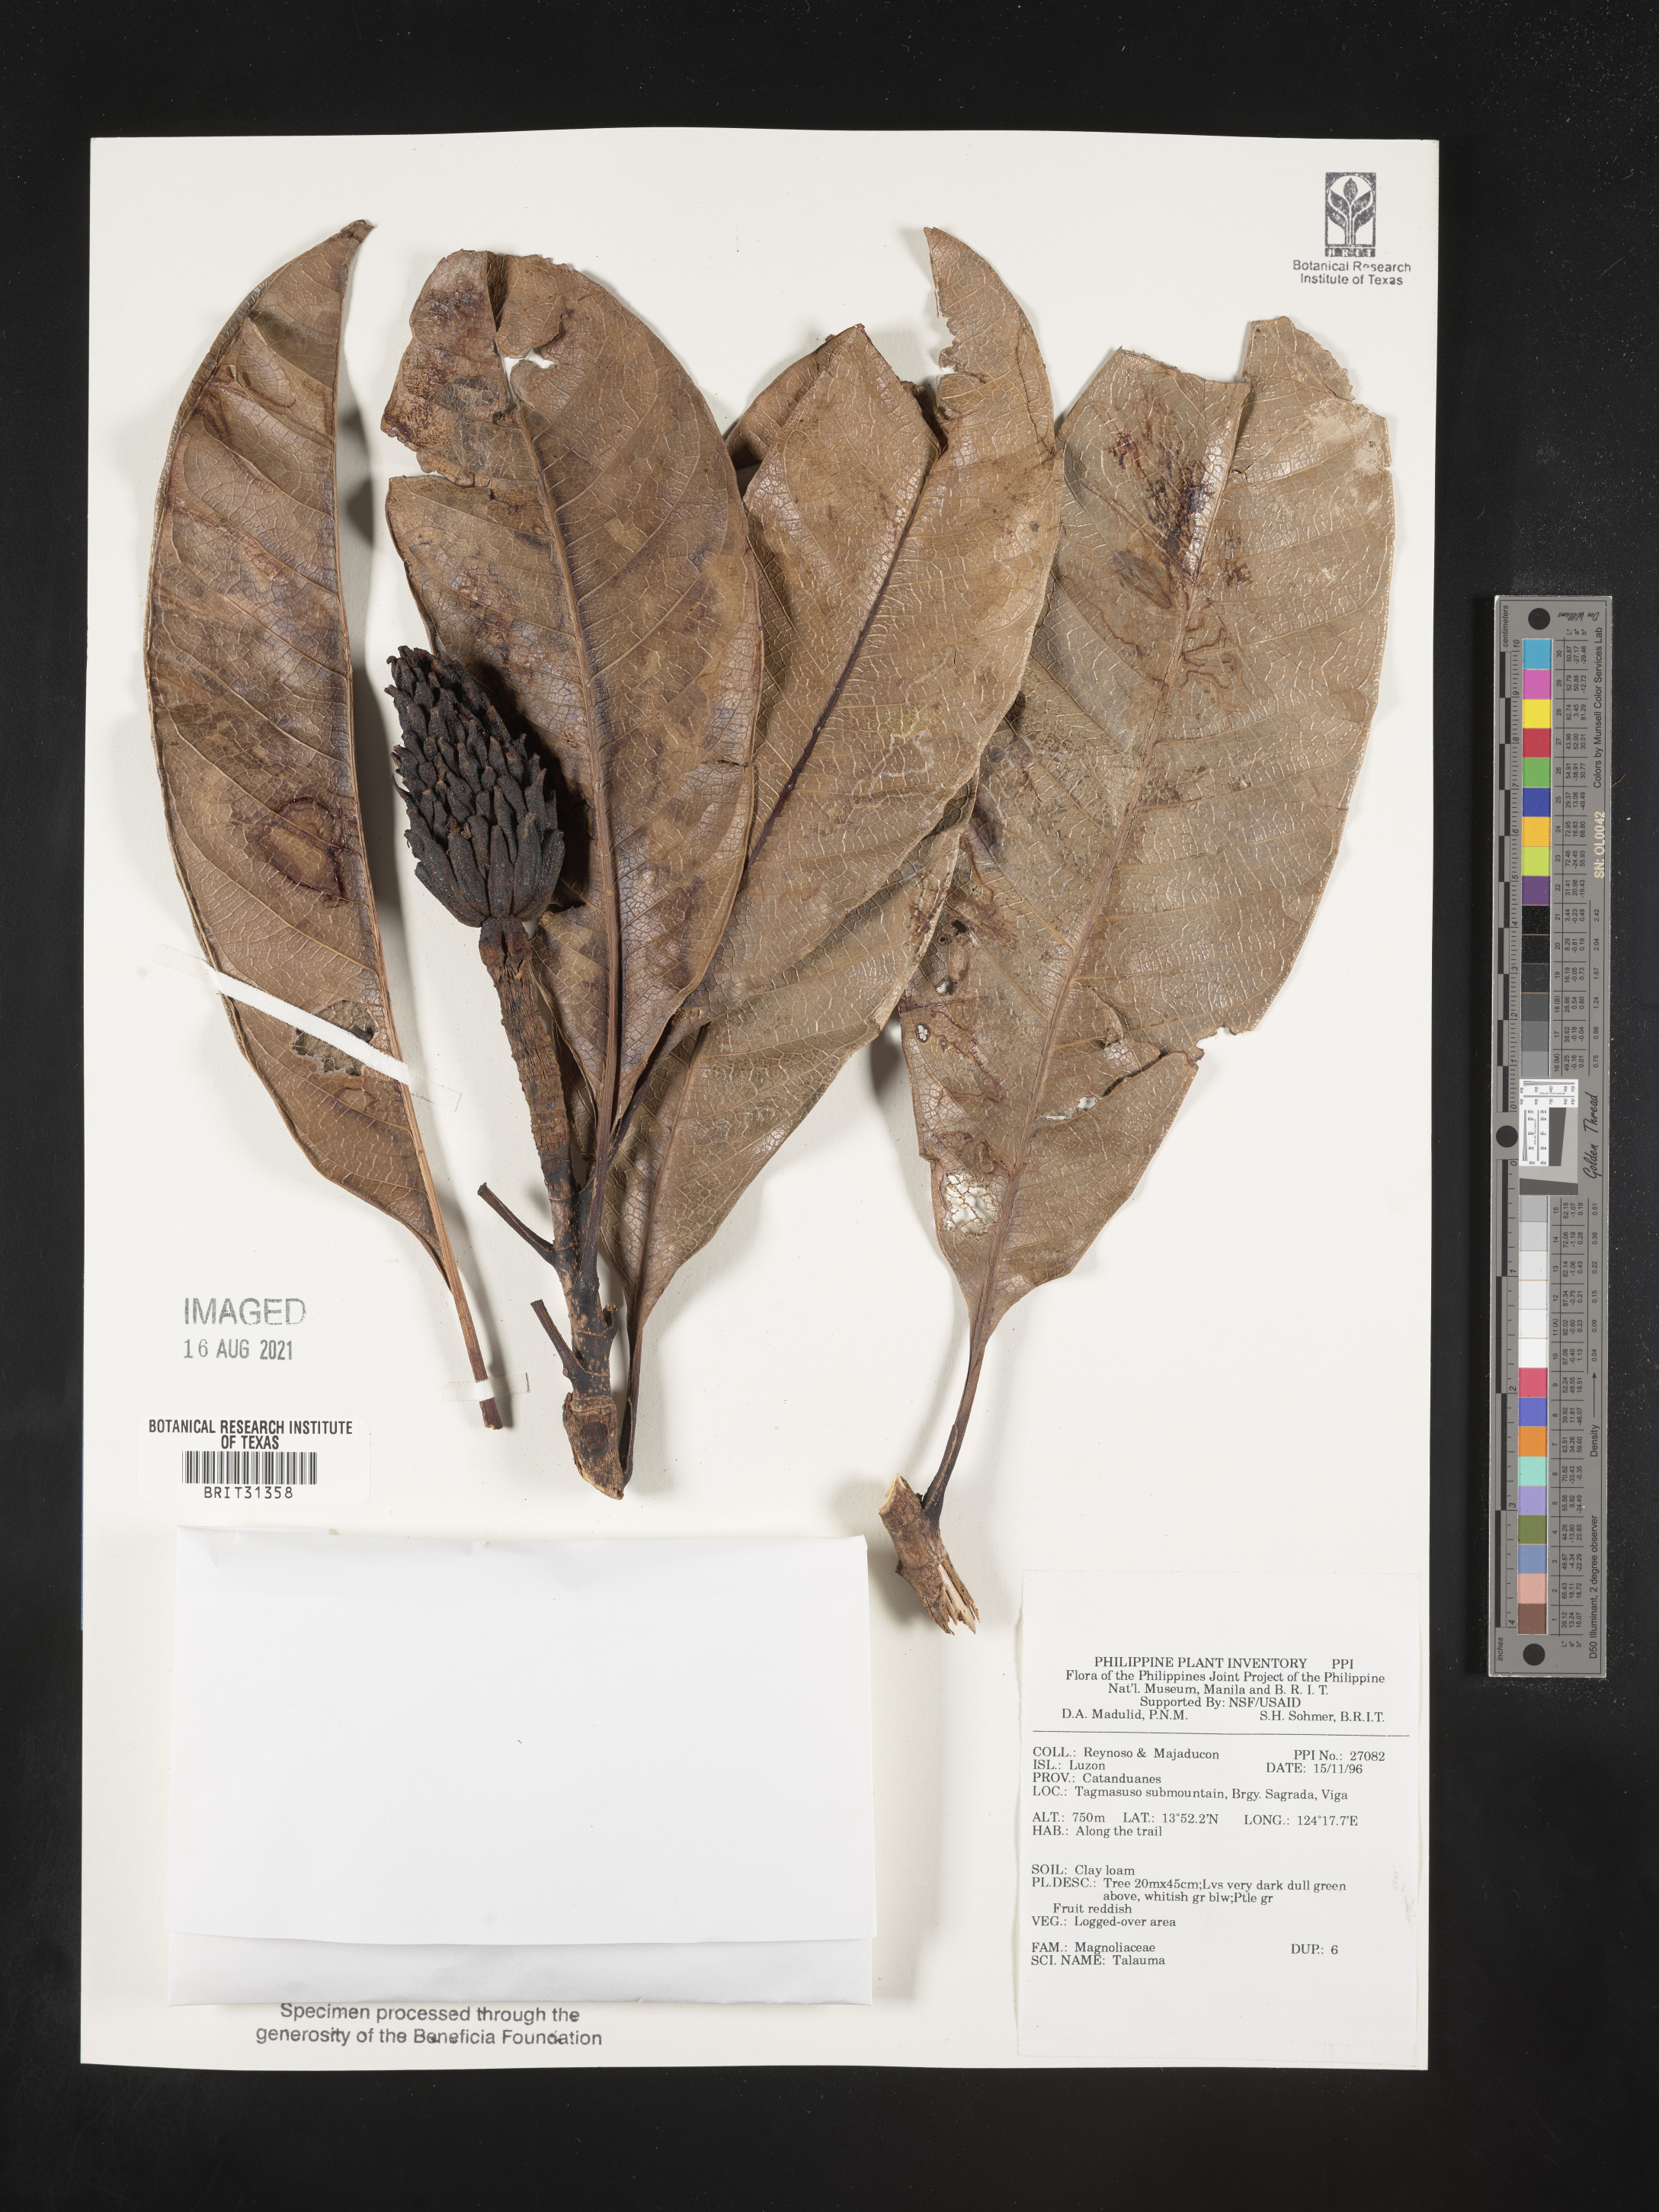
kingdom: Plantae
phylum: Tracheophyta
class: Magnoliopsida
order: Magnoliales
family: Magnoliaceae
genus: Magnolia
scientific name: Magnolia Talauma spec
